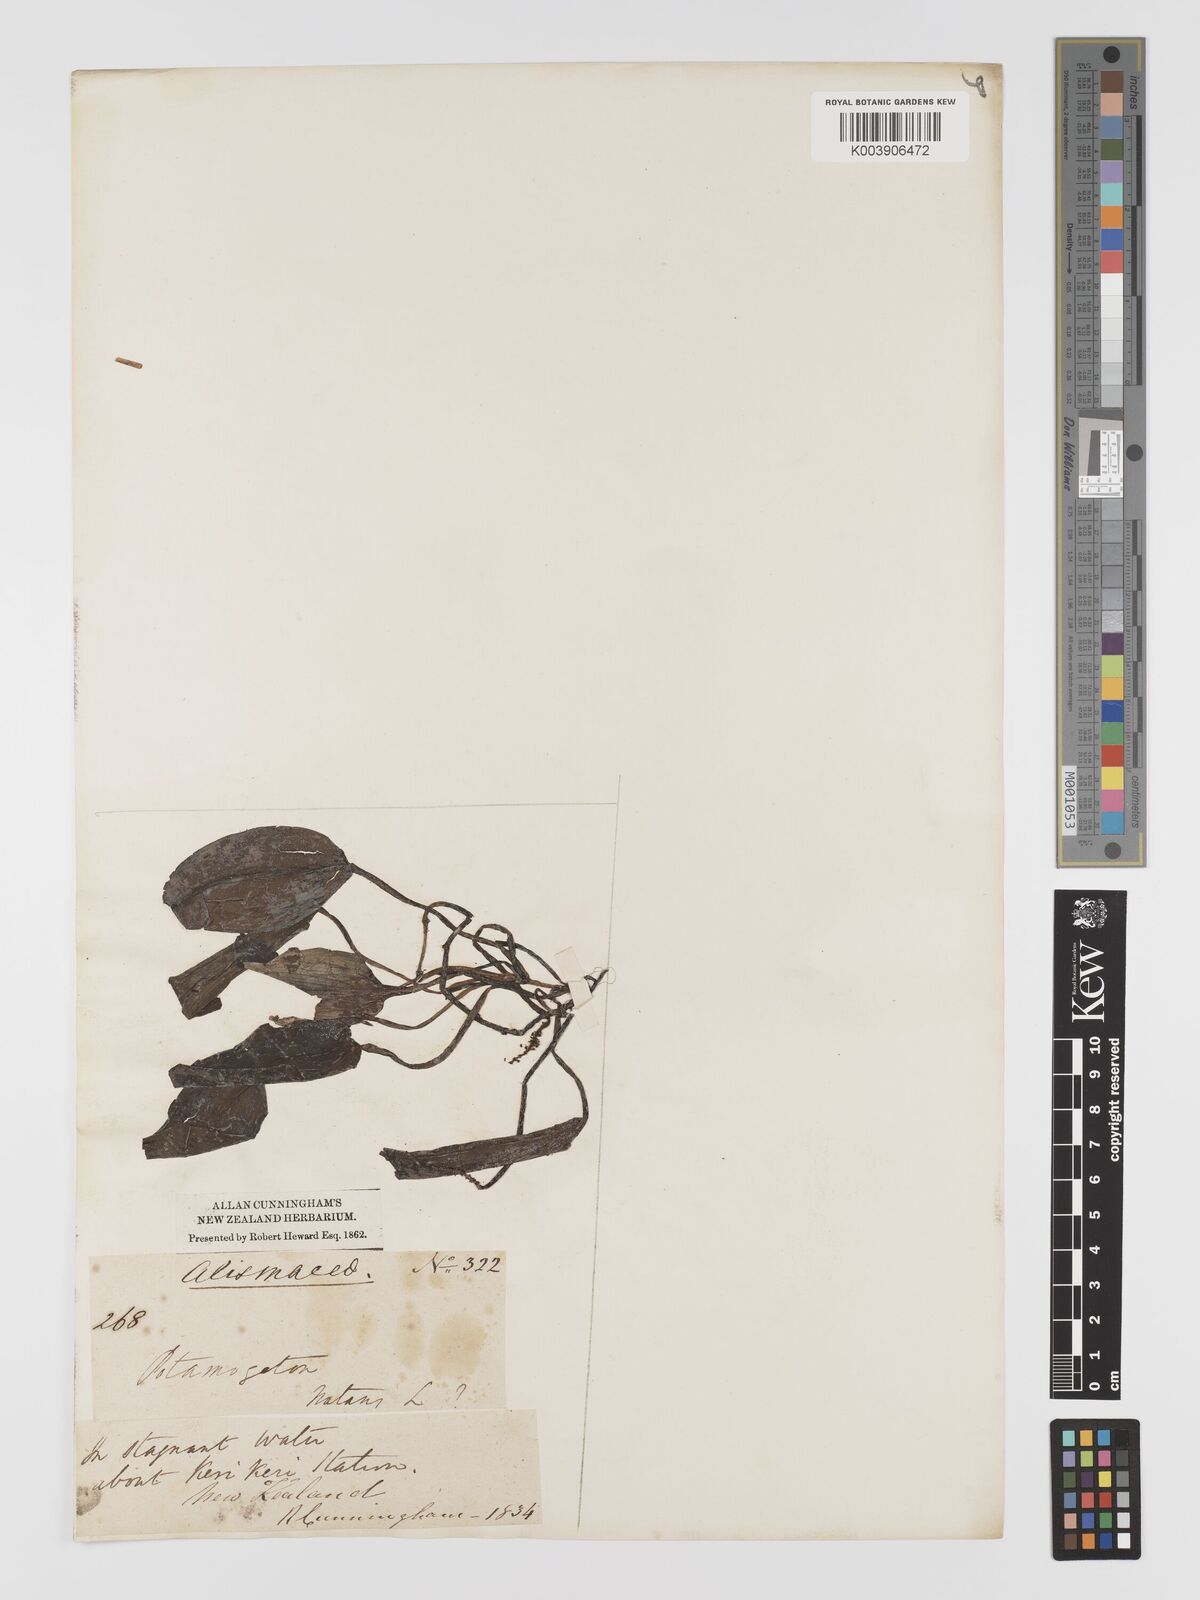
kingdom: Plantae
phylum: Tracheophyta
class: Liliopsida
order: Alismatales
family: Potamogetonaceae
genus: Potamogeton
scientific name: Potamogeton
